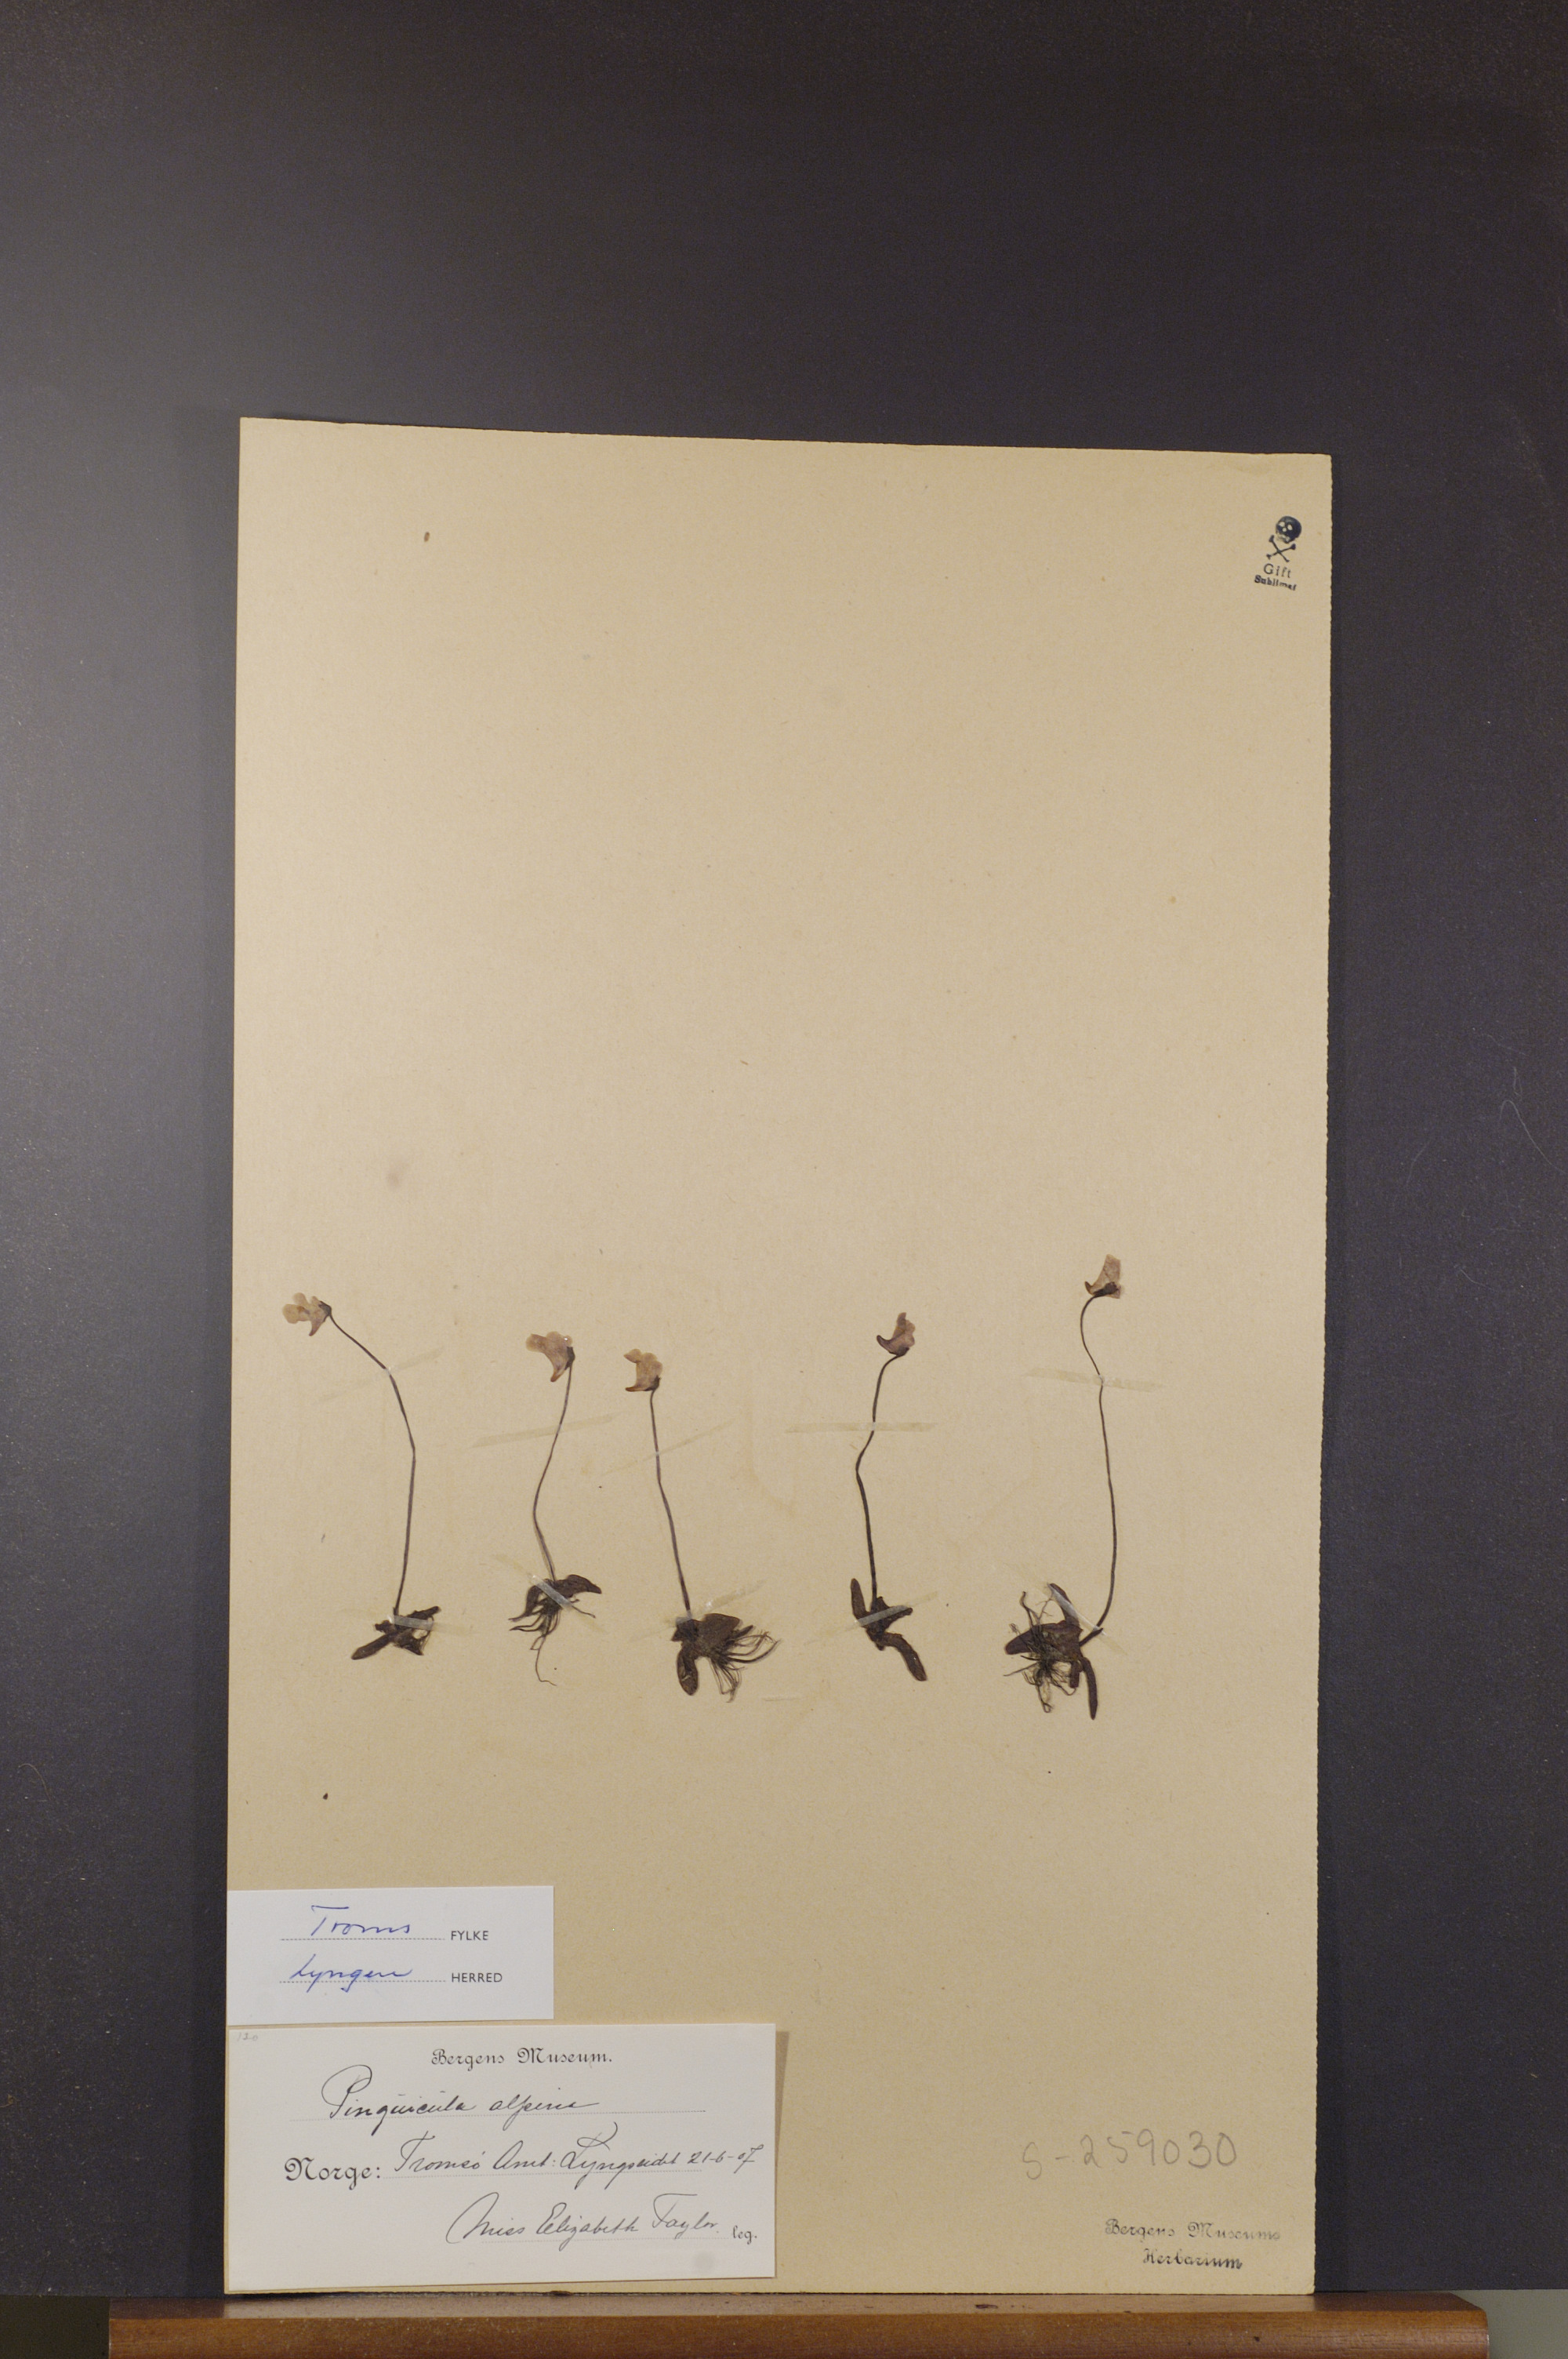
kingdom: Plantae
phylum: Tracheophyta
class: Magnoliopsida
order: Lamiales
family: Lentibulariaceae
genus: Pinguicula
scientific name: Pinguicula alpina
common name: Alpine butterwort
